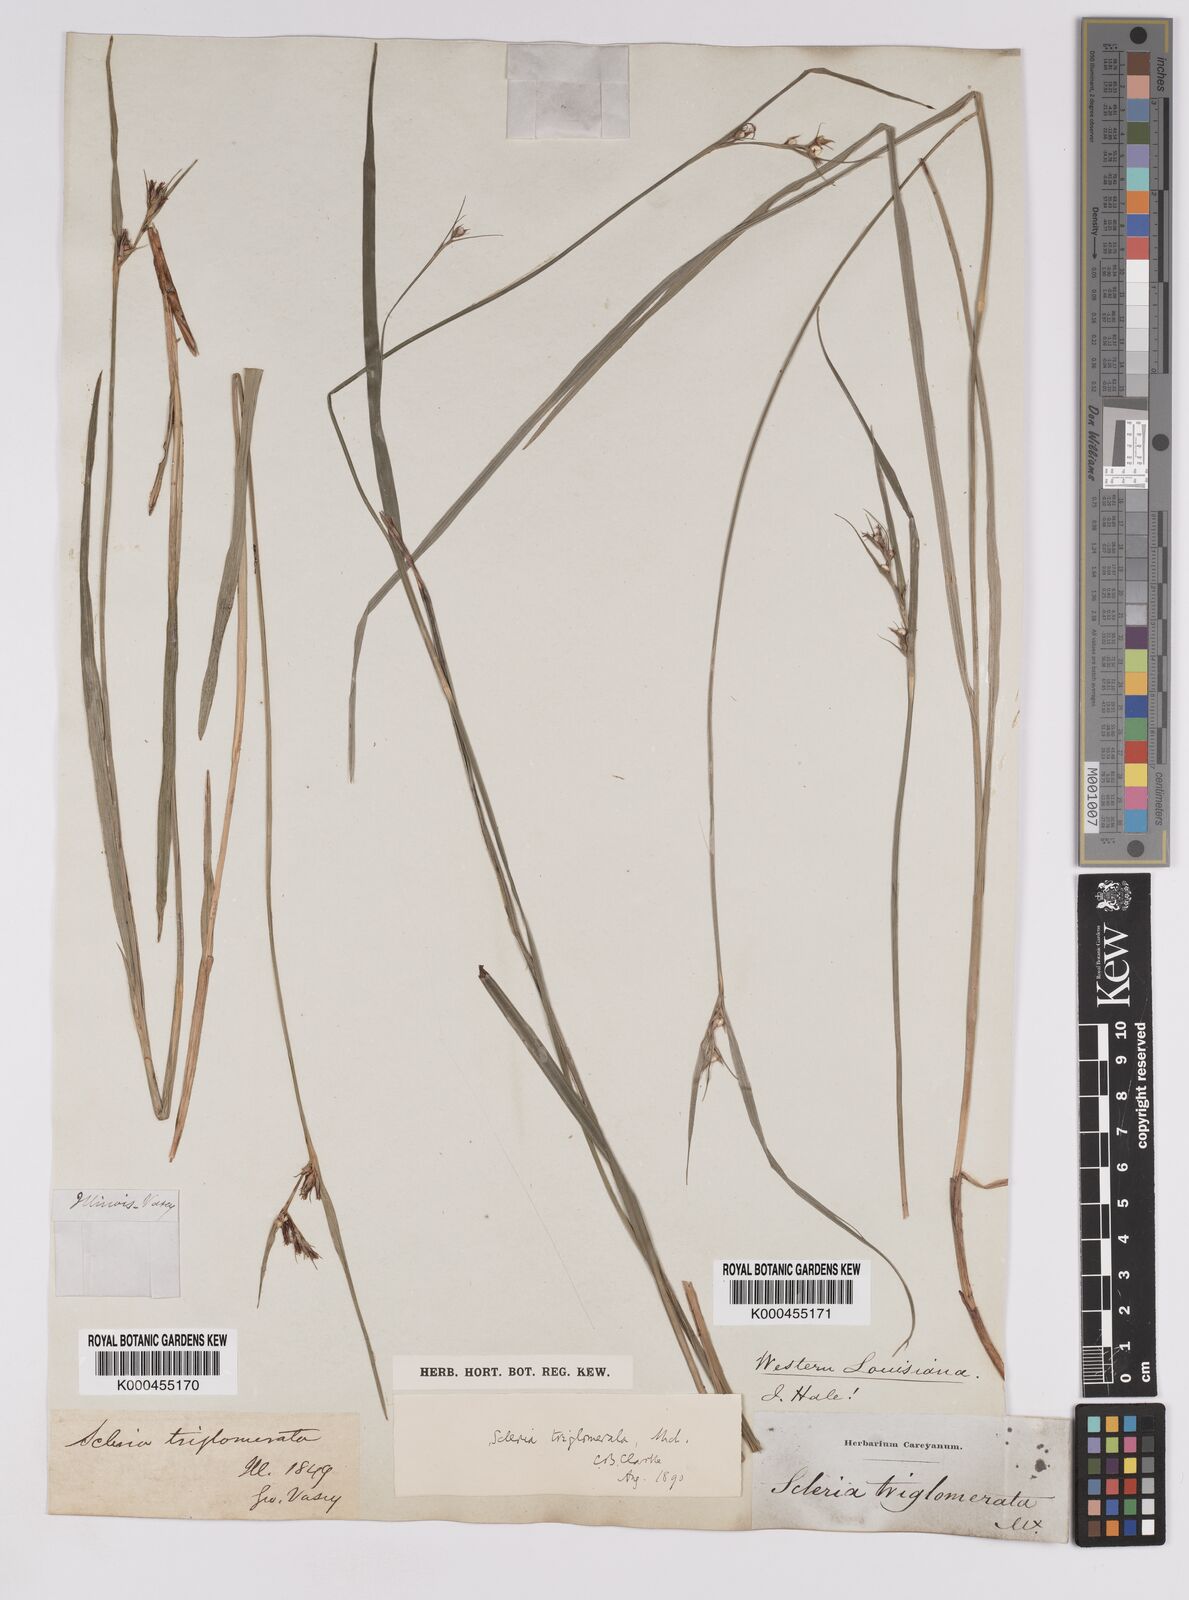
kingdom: Plantae
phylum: Tracheophyta
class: Liliopsida
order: Poales
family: Cyperaceae
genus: Scleria
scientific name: Scleria triglomerata
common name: Whip nutrush
